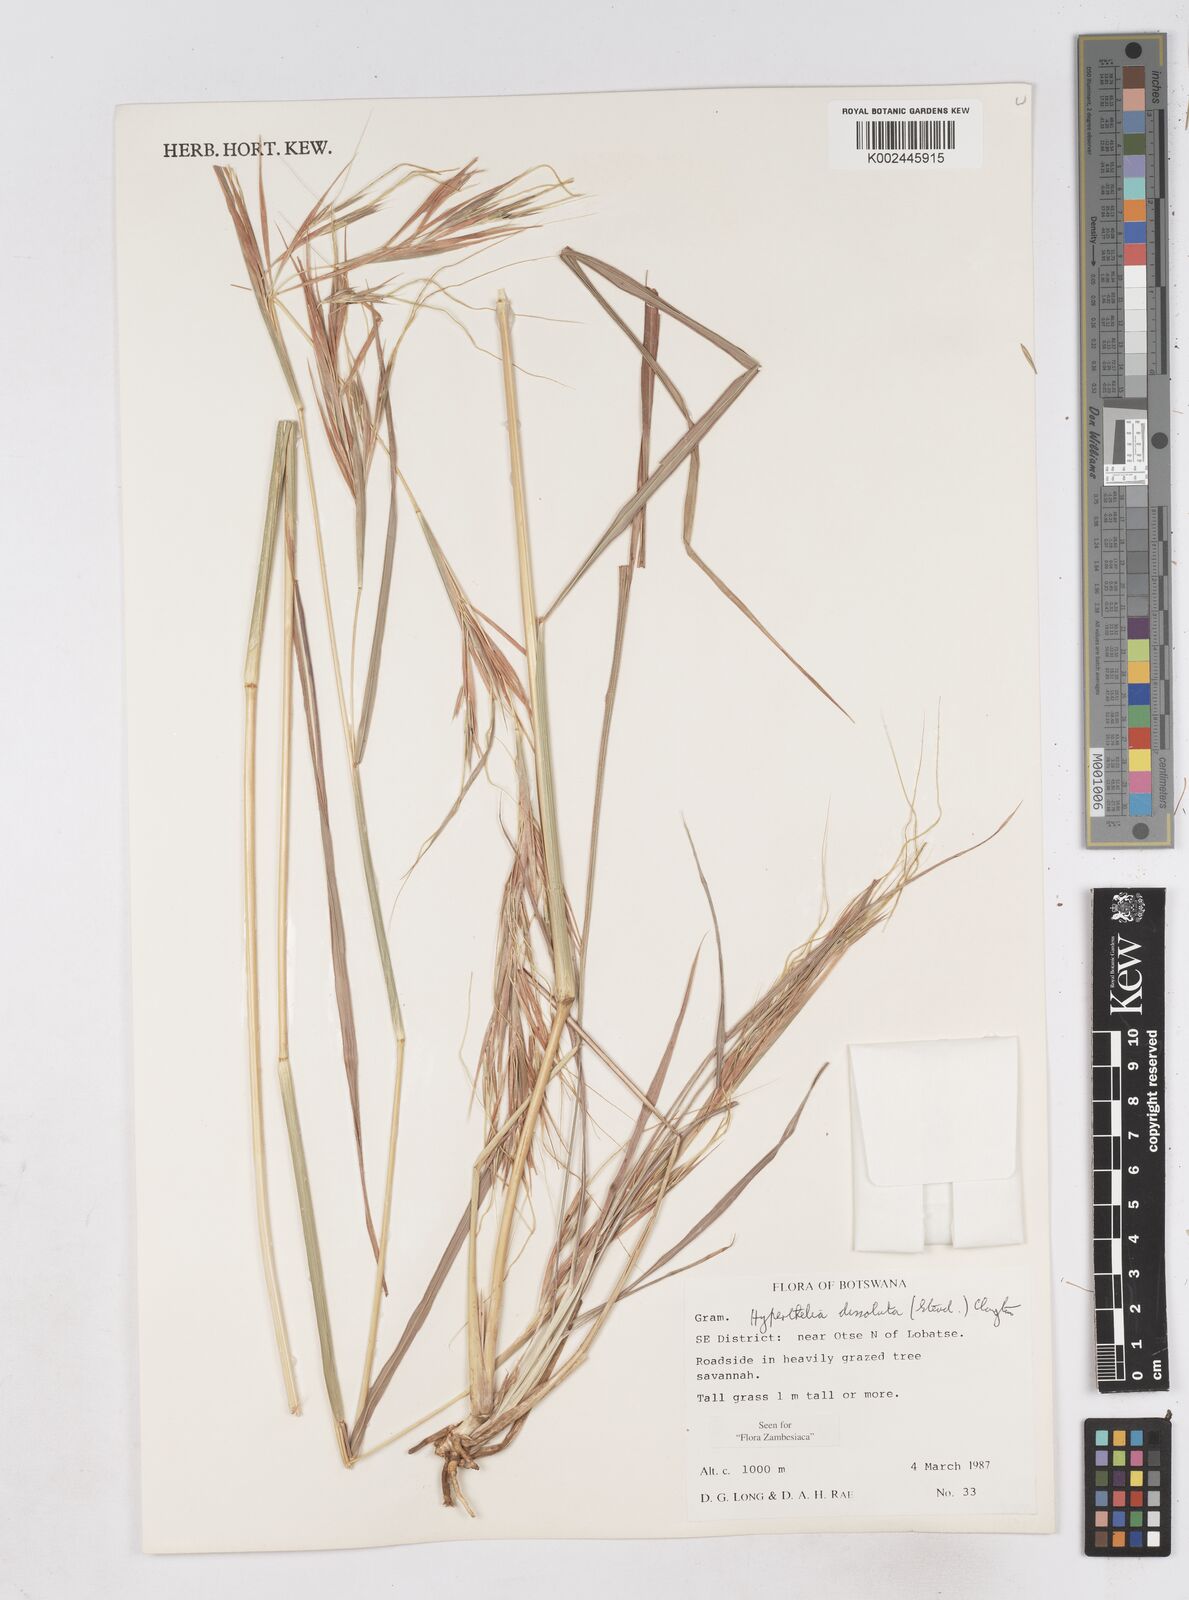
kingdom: Plantae
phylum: Tracheophyta
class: Liliopsida
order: Poales
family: Poaceae
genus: Hyperthelia
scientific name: Hyperthelia dissoluta
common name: Yellow thatching grass
